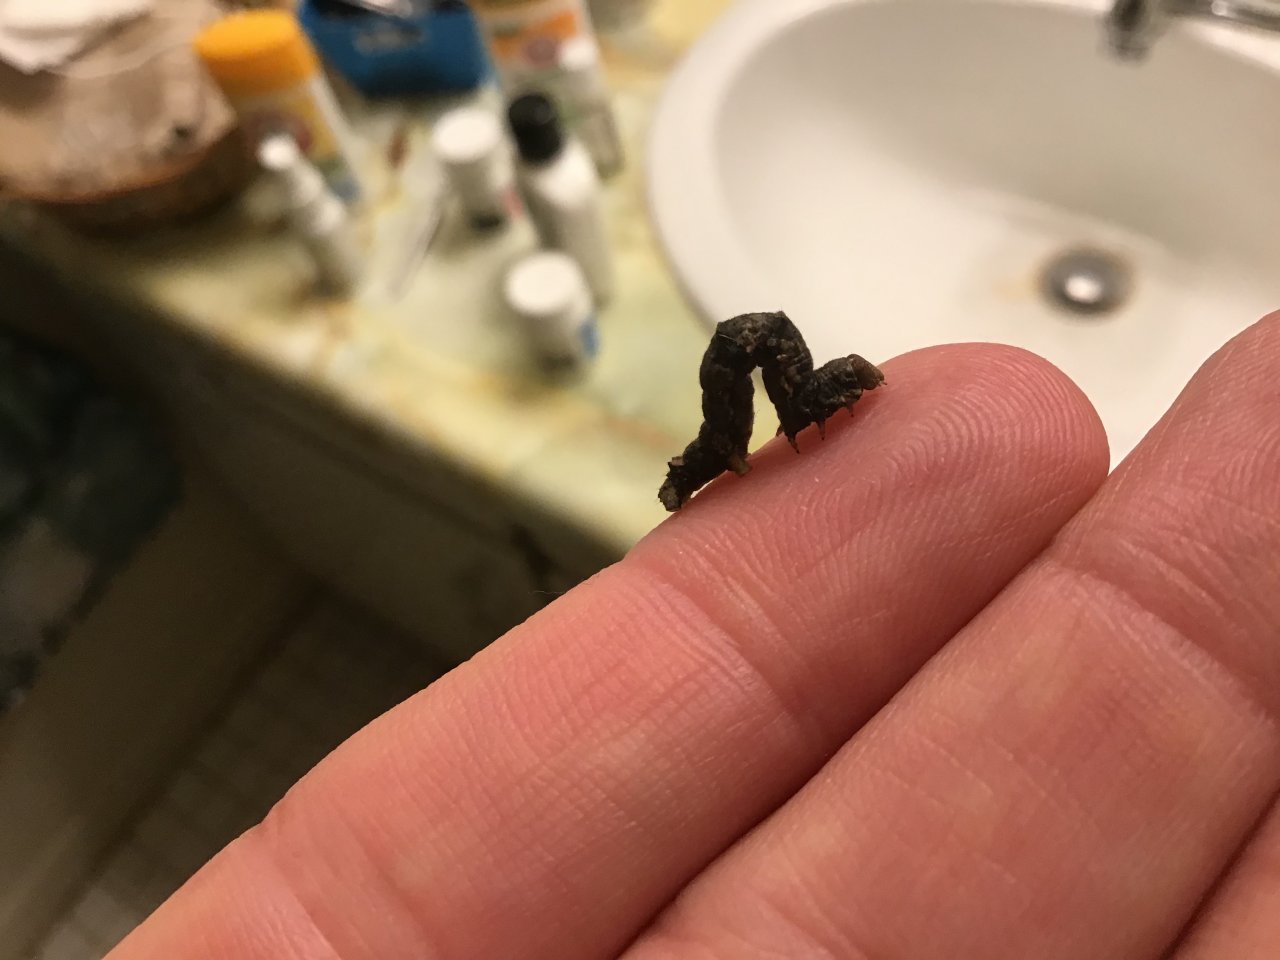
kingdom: Animalia
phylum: Arthropoda
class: Insecta
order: Lepidoptera
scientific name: Lepidoptera
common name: Butterflies
